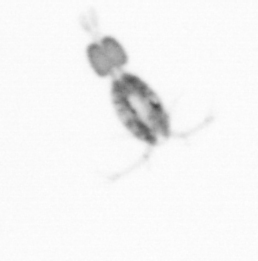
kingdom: Animalia
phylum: Arthropoda
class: Copepoda
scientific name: Copepoda
